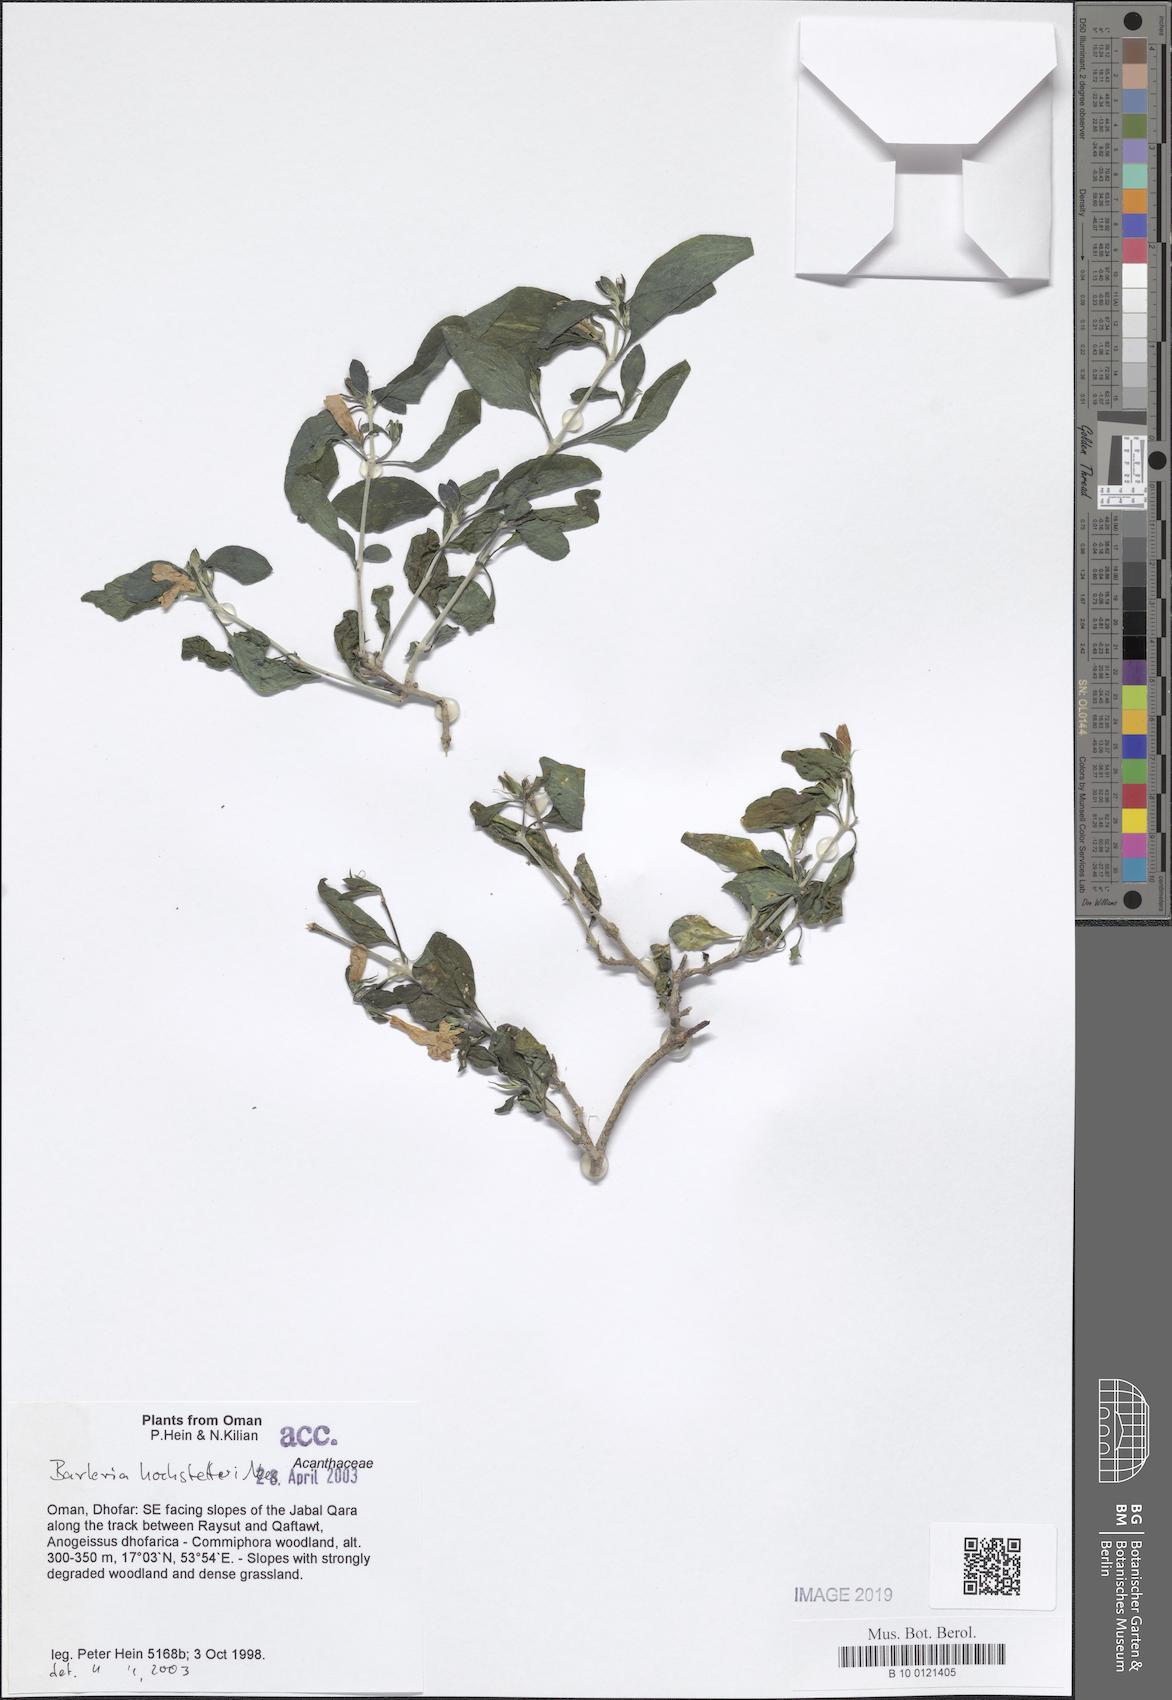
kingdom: Plantae
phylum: Tracheophyta
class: Magnoliopsida
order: Lamiales
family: Acanthaceae
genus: Barleria
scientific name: Barleria hochstetteri
